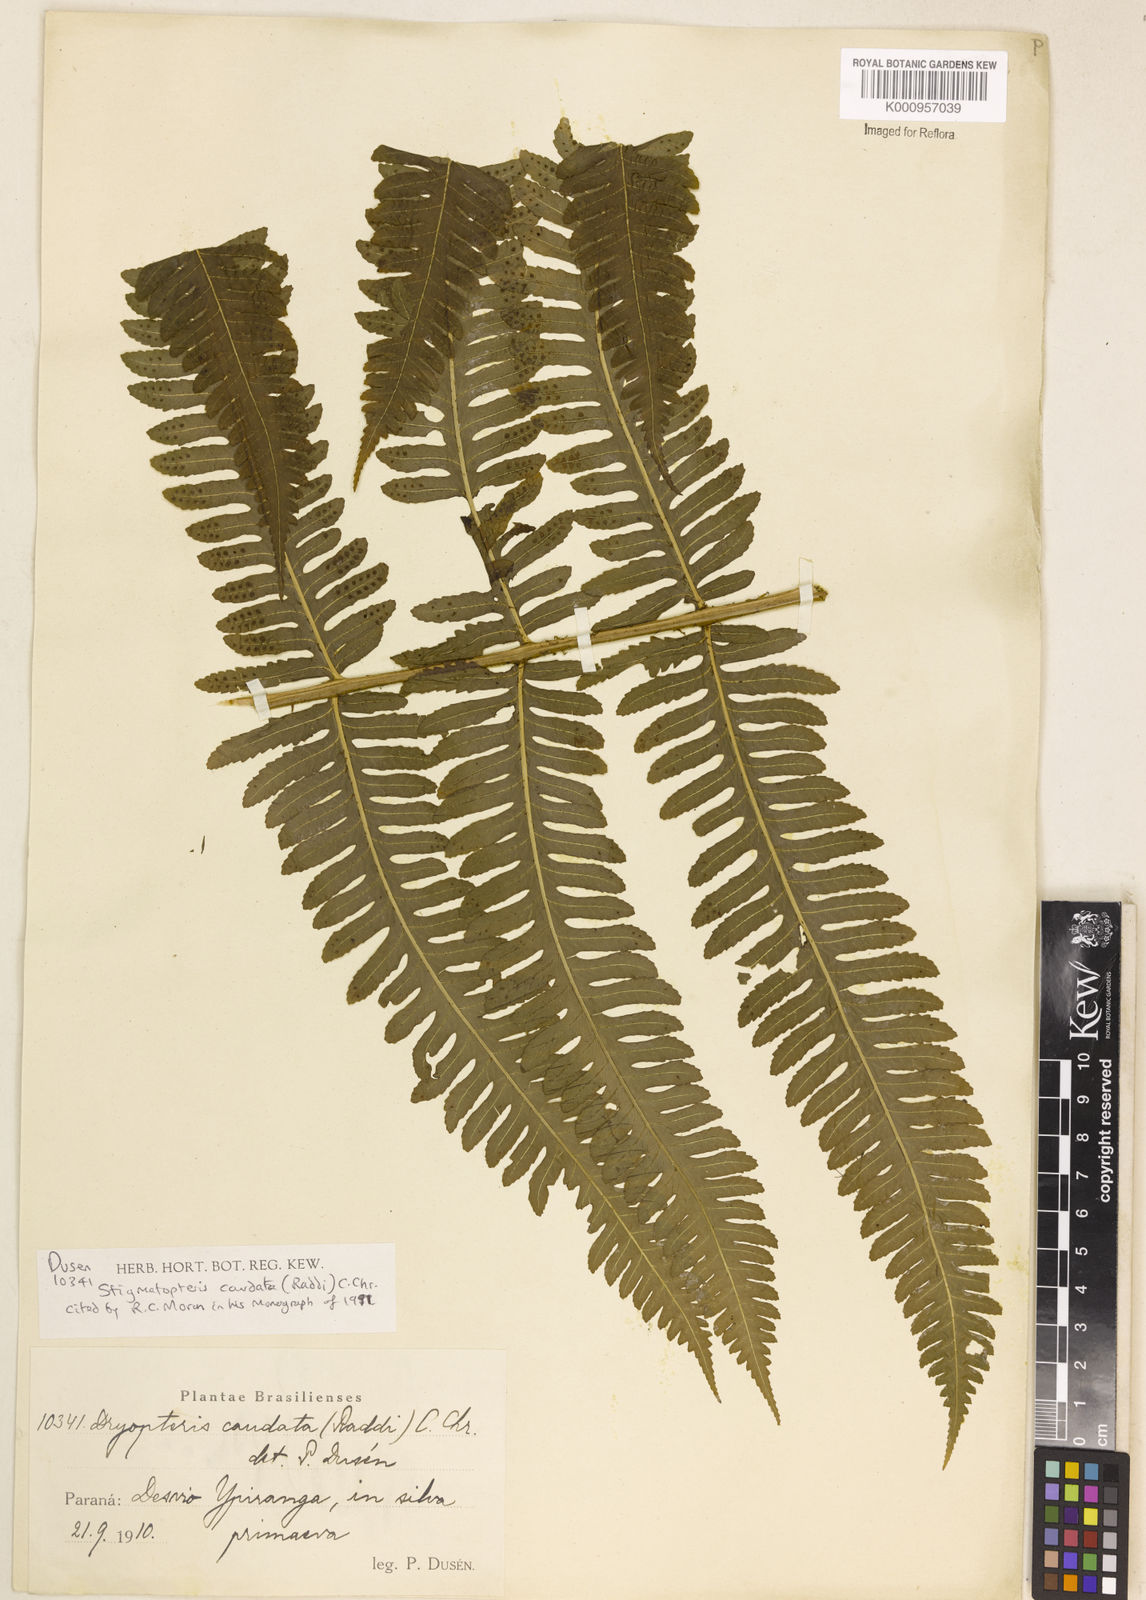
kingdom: Plantae
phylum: Tracheophyta
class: Polypodiopsida
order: Polypodiales
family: Dryopteridaceae
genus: Stigmatopteris
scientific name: Stigmatopteris caudata
